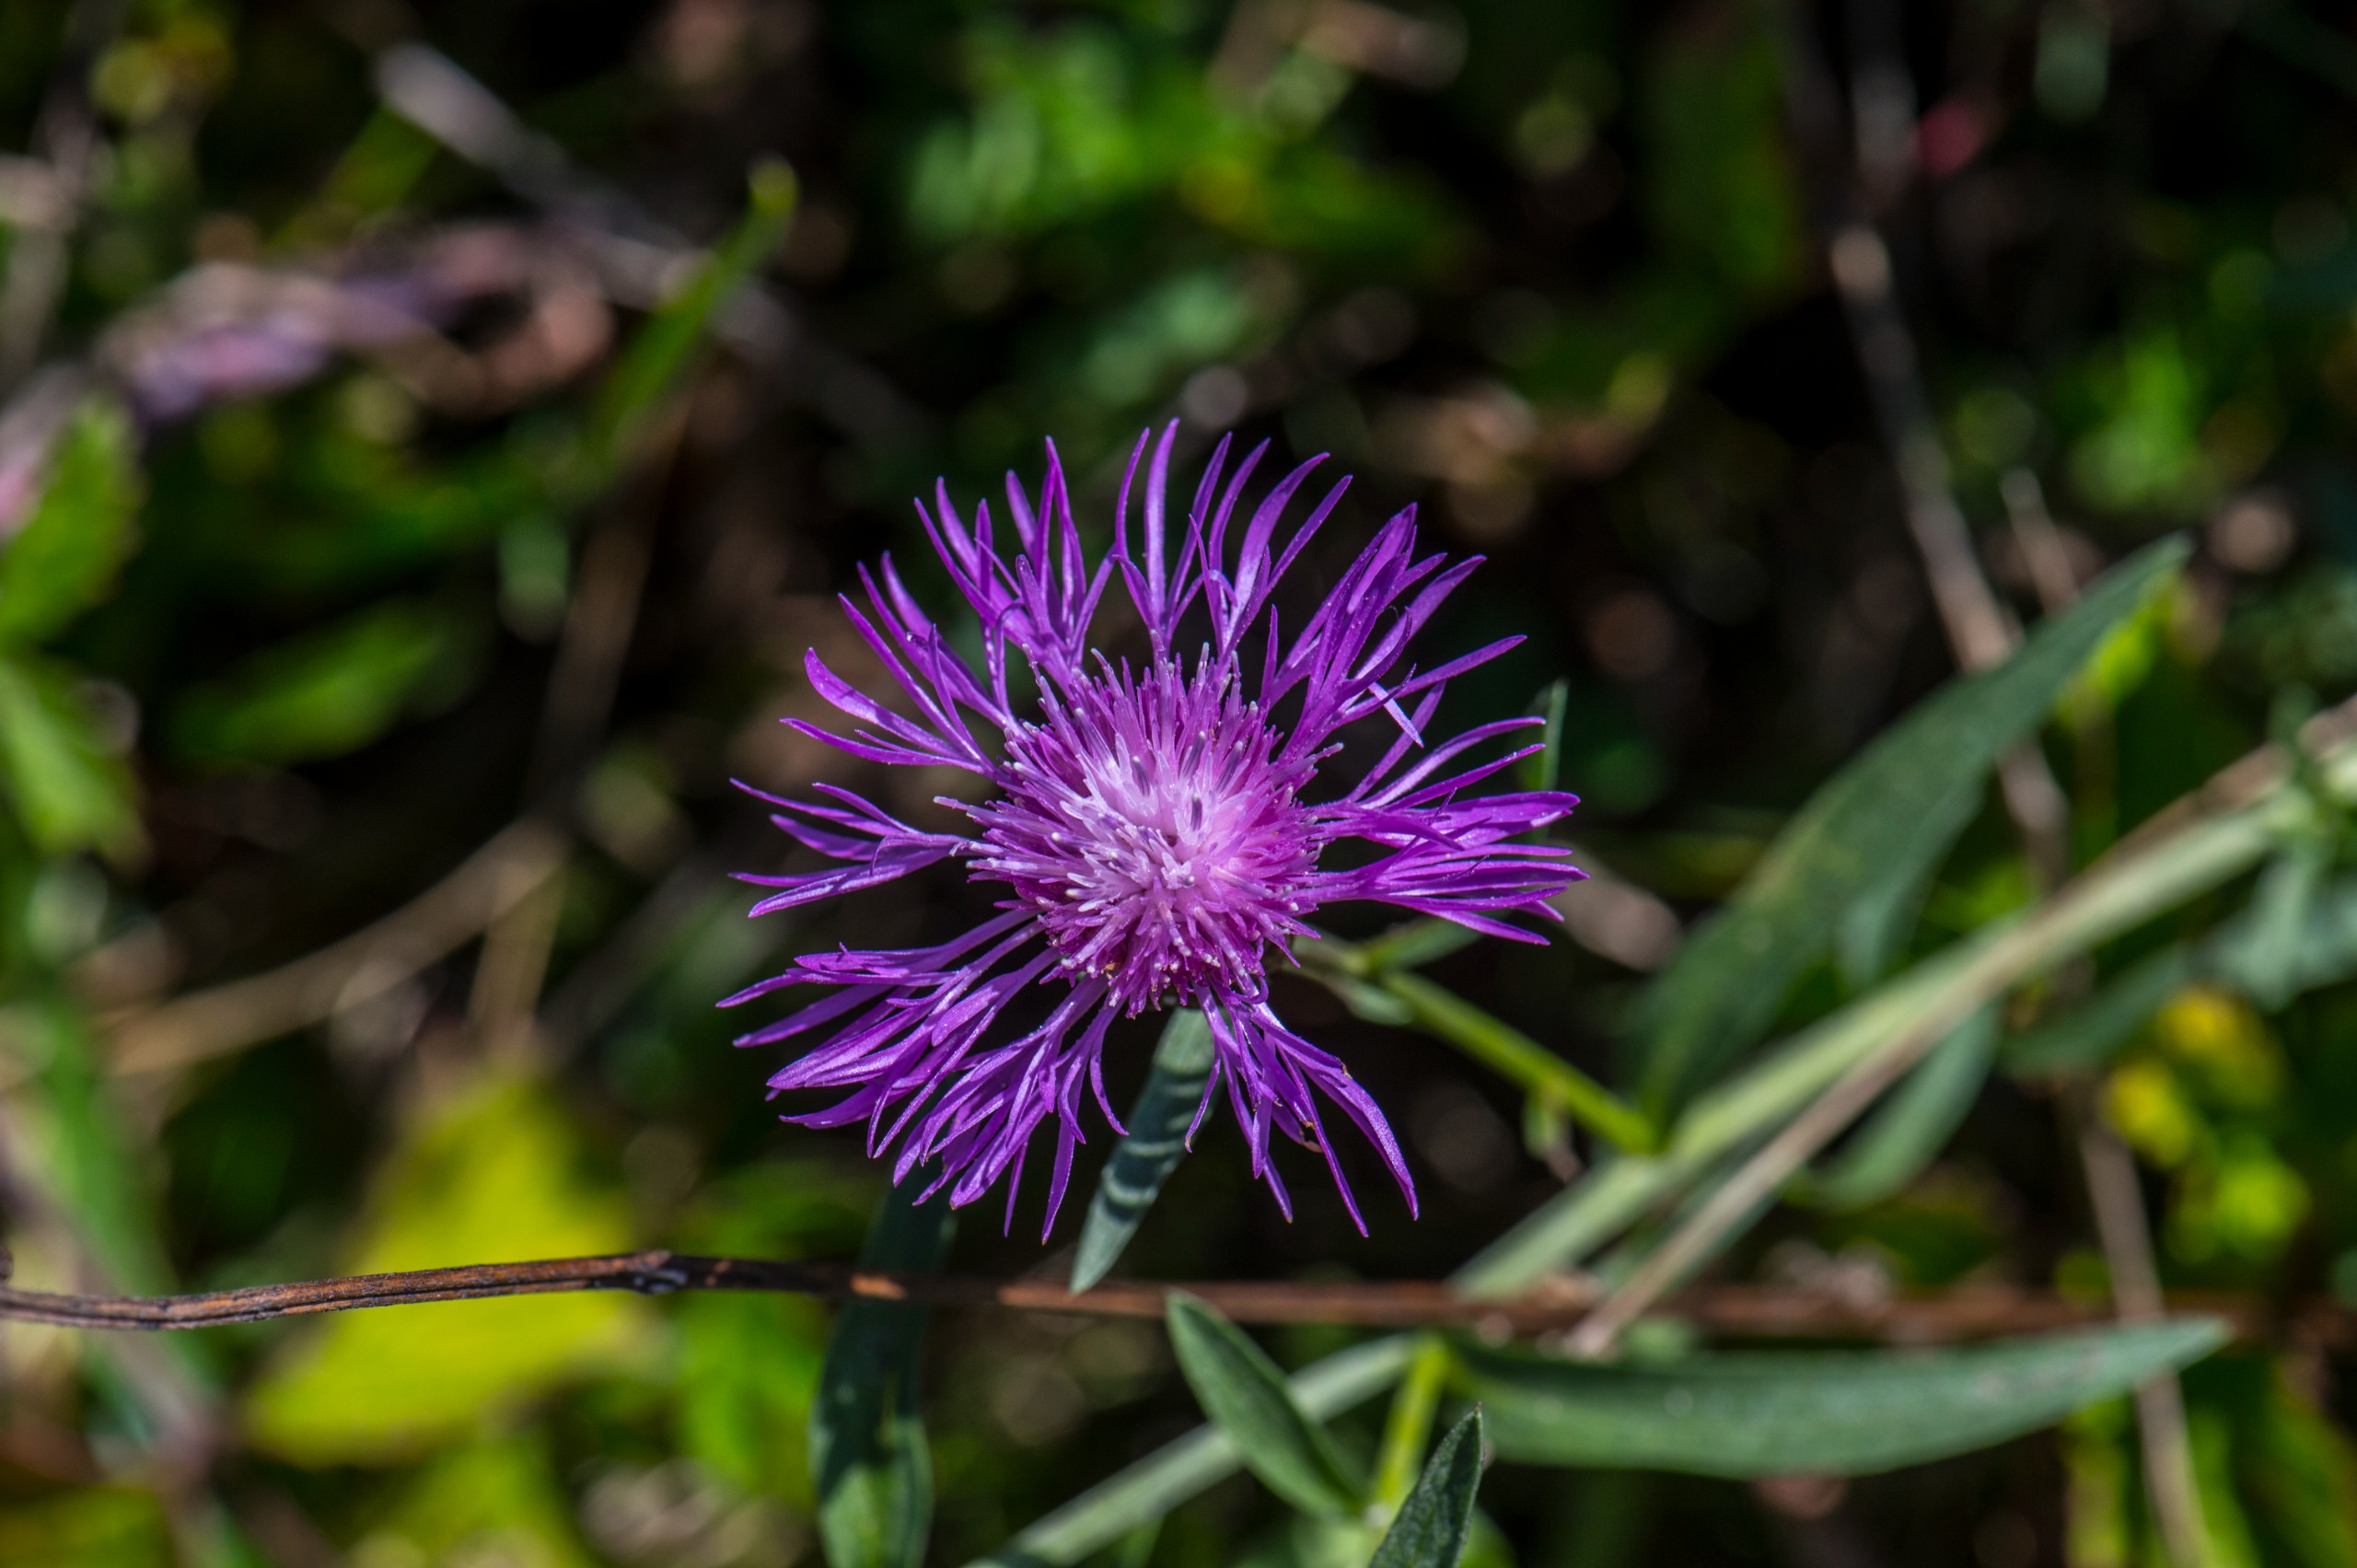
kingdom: Plantae
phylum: Tracheophyta
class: Magnoliopsida
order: Asterales
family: Asteraceae
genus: Centaurea
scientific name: Centaurea jacea
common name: Almindelig knopurt
